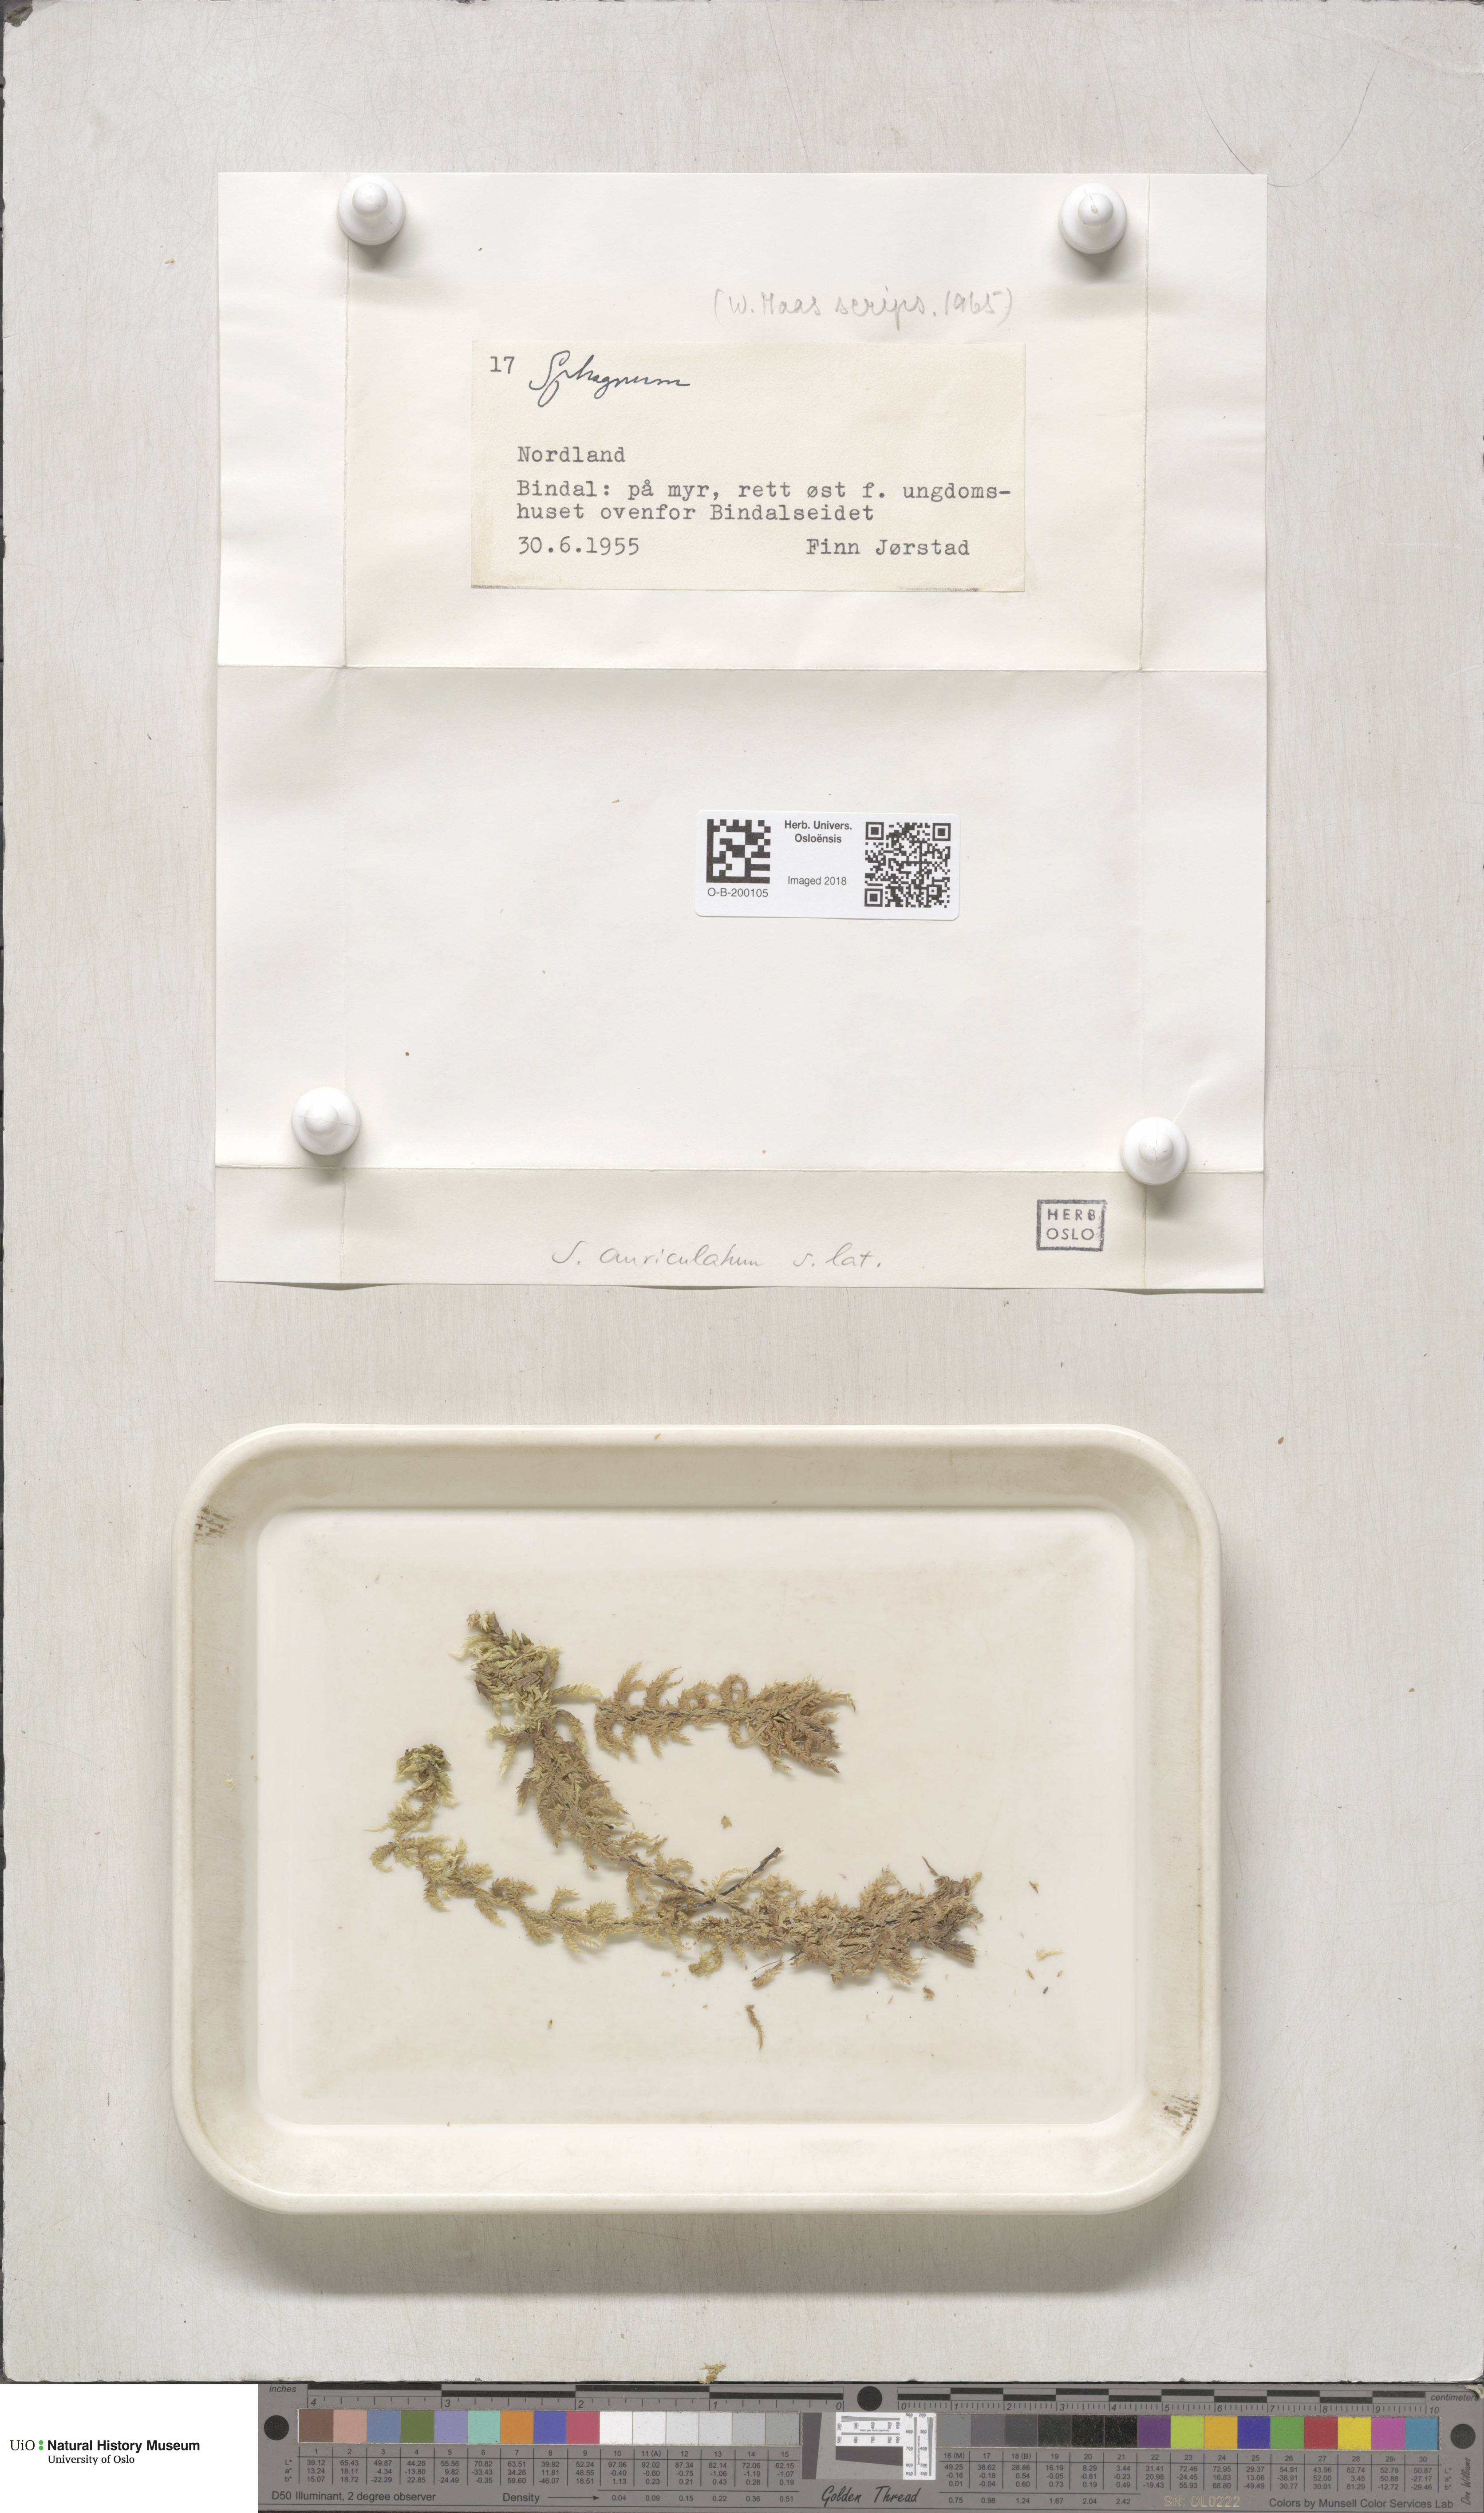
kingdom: Plantae
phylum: Bryophyta
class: Sphagnopsida
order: Sphagnales
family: Sphagnaceae
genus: Sphagnum
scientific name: Sphagnum denticulatum
